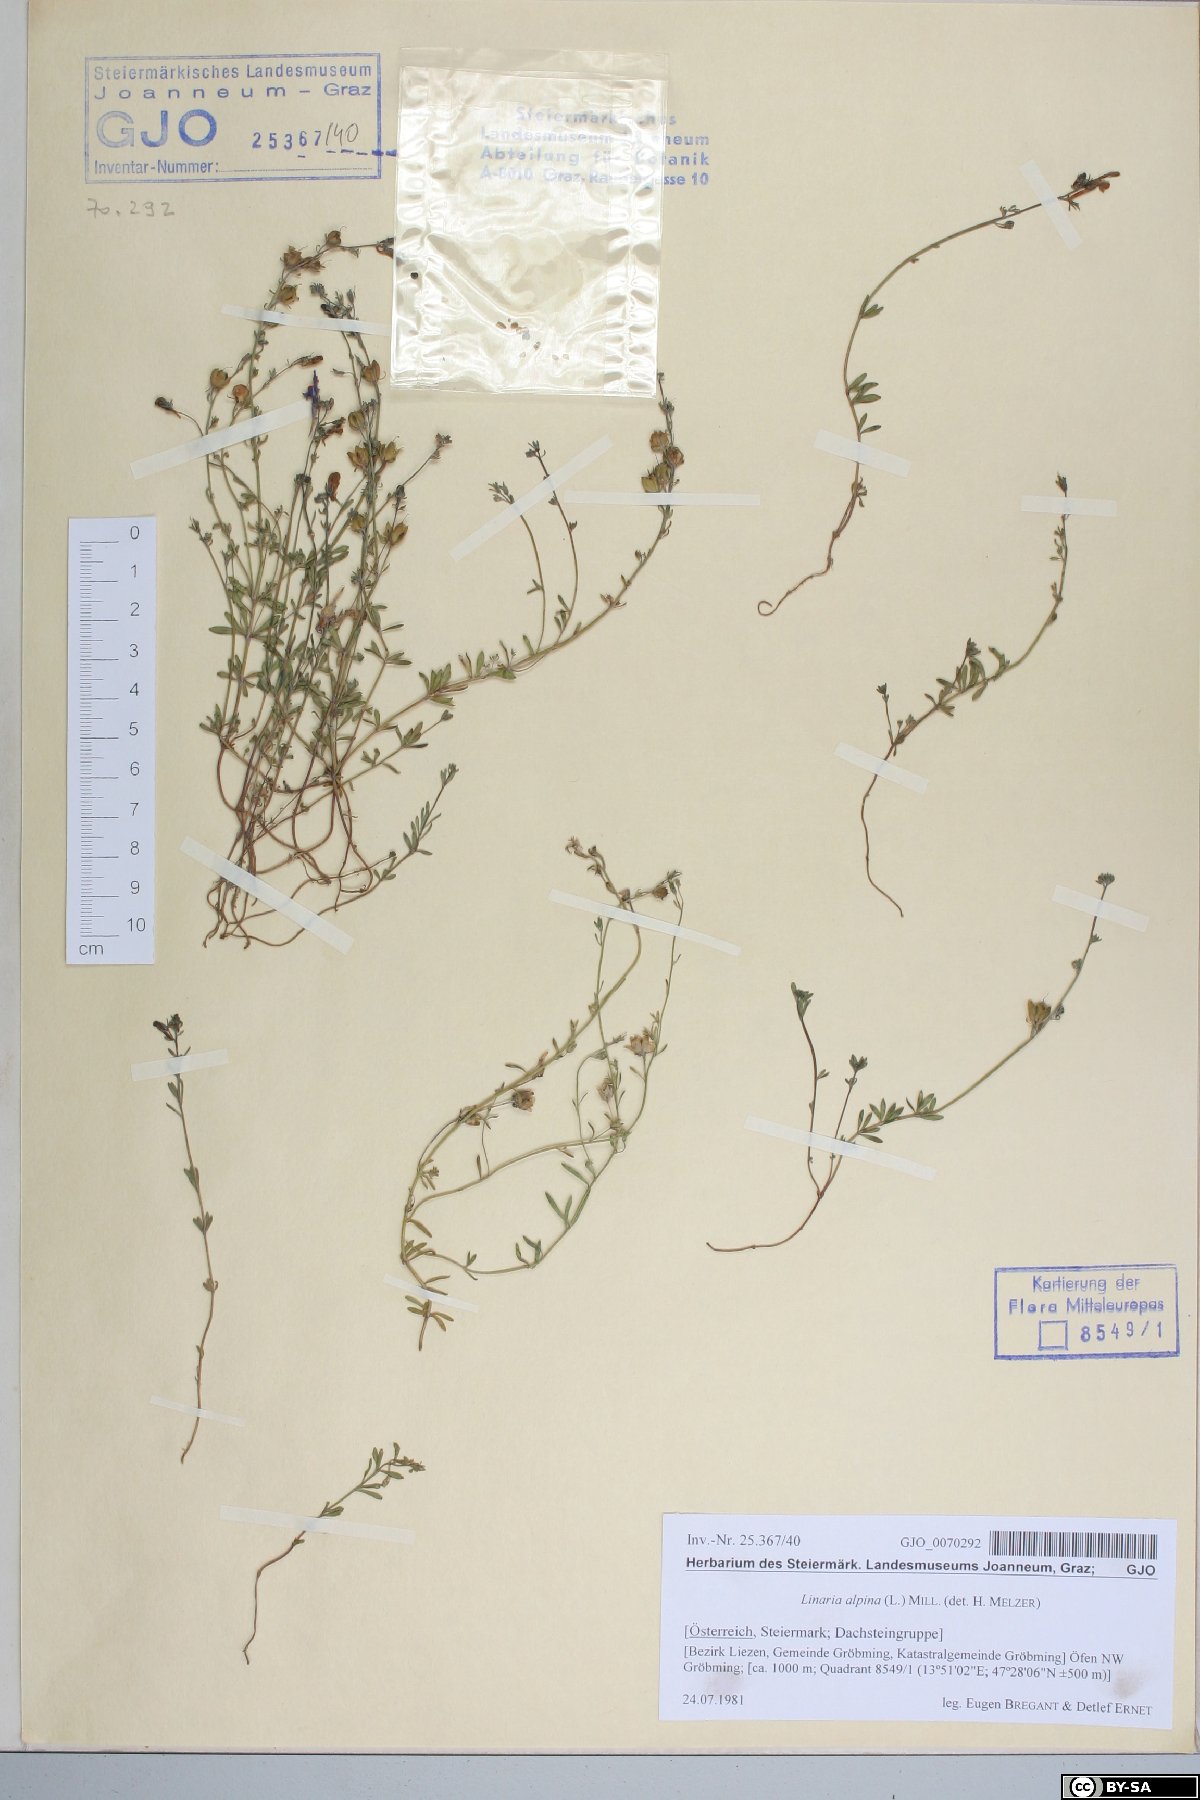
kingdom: Plantae
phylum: Tracheophyta
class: Magnoliopsida
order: Lamiales
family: Plantaginaceae
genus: Linaria
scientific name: Linaria alpina
